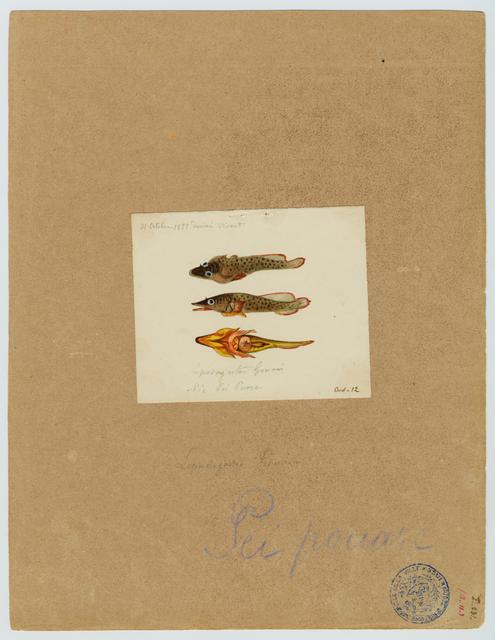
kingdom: Animalia
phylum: Chordata
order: Gobiesociformes
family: Gobiesocidae
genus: Lepadogaster
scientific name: Lepadogaster lepadogaster
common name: Cornish sucker
